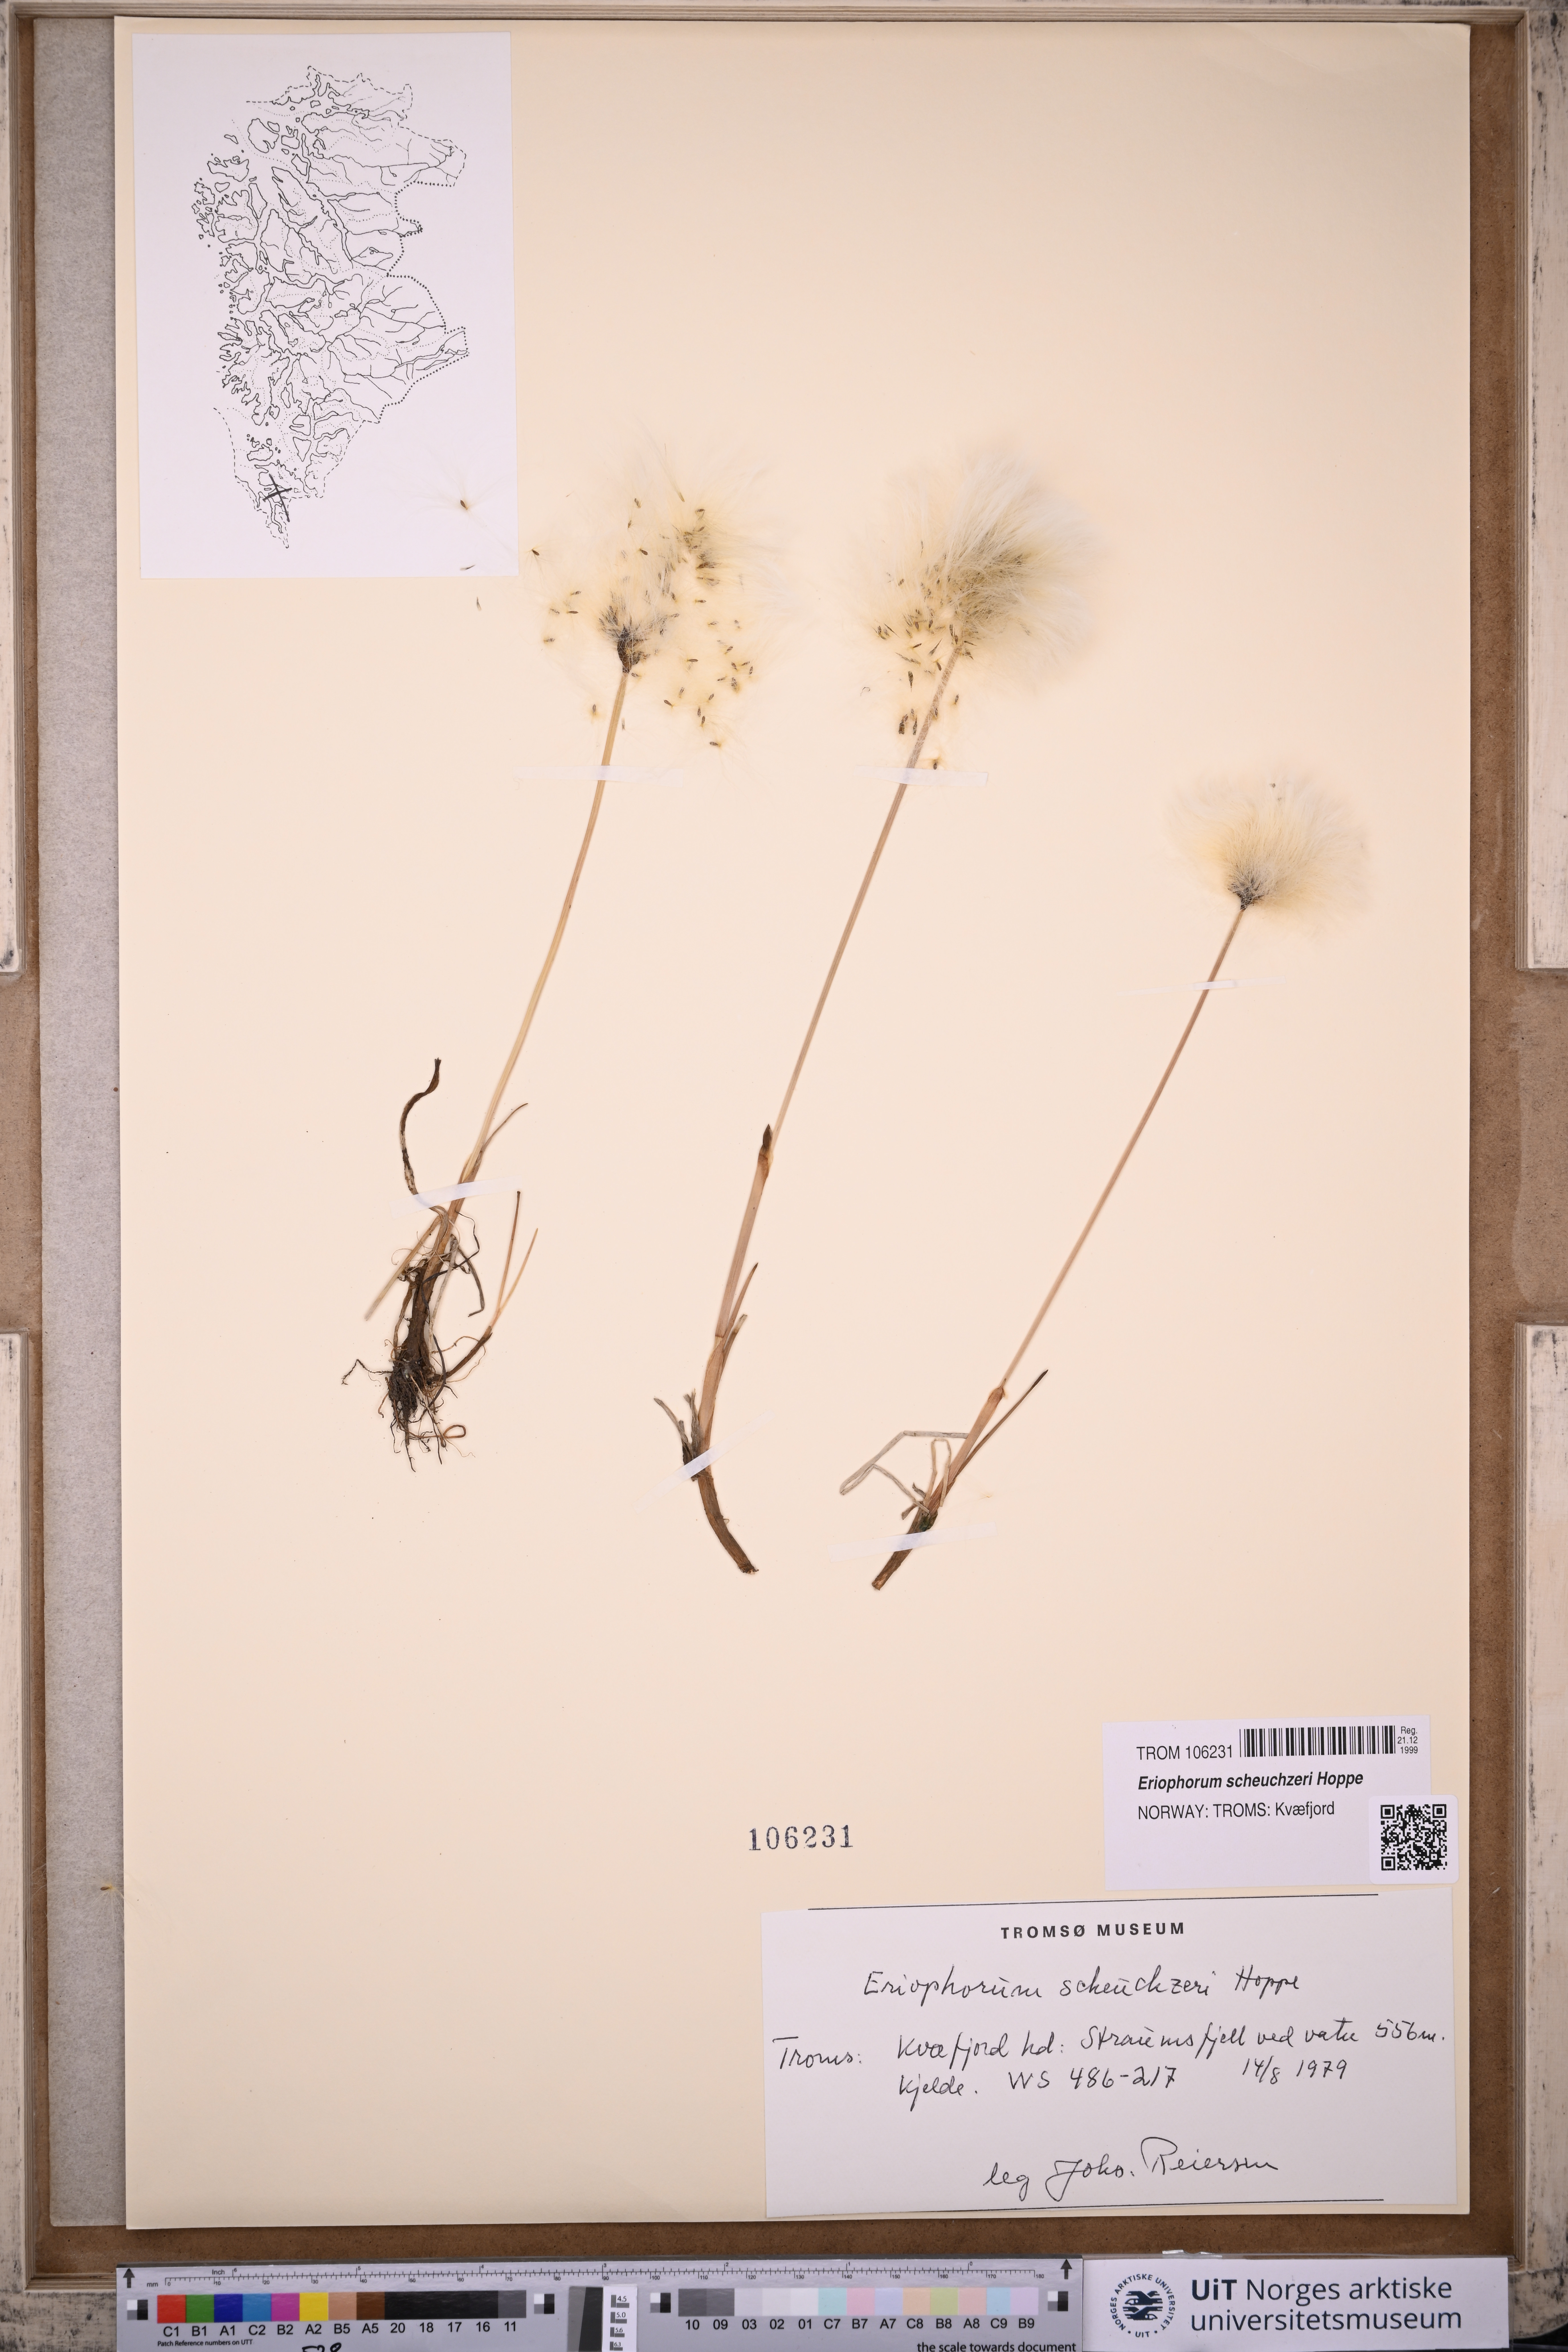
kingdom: Plantae
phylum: Tracheophyta
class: Liliopsida
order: Poales
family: Cyperaceae
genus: Eriophorum
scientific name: Eriophorum scheuchzeri
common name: Scheuchzer's cottongrass
